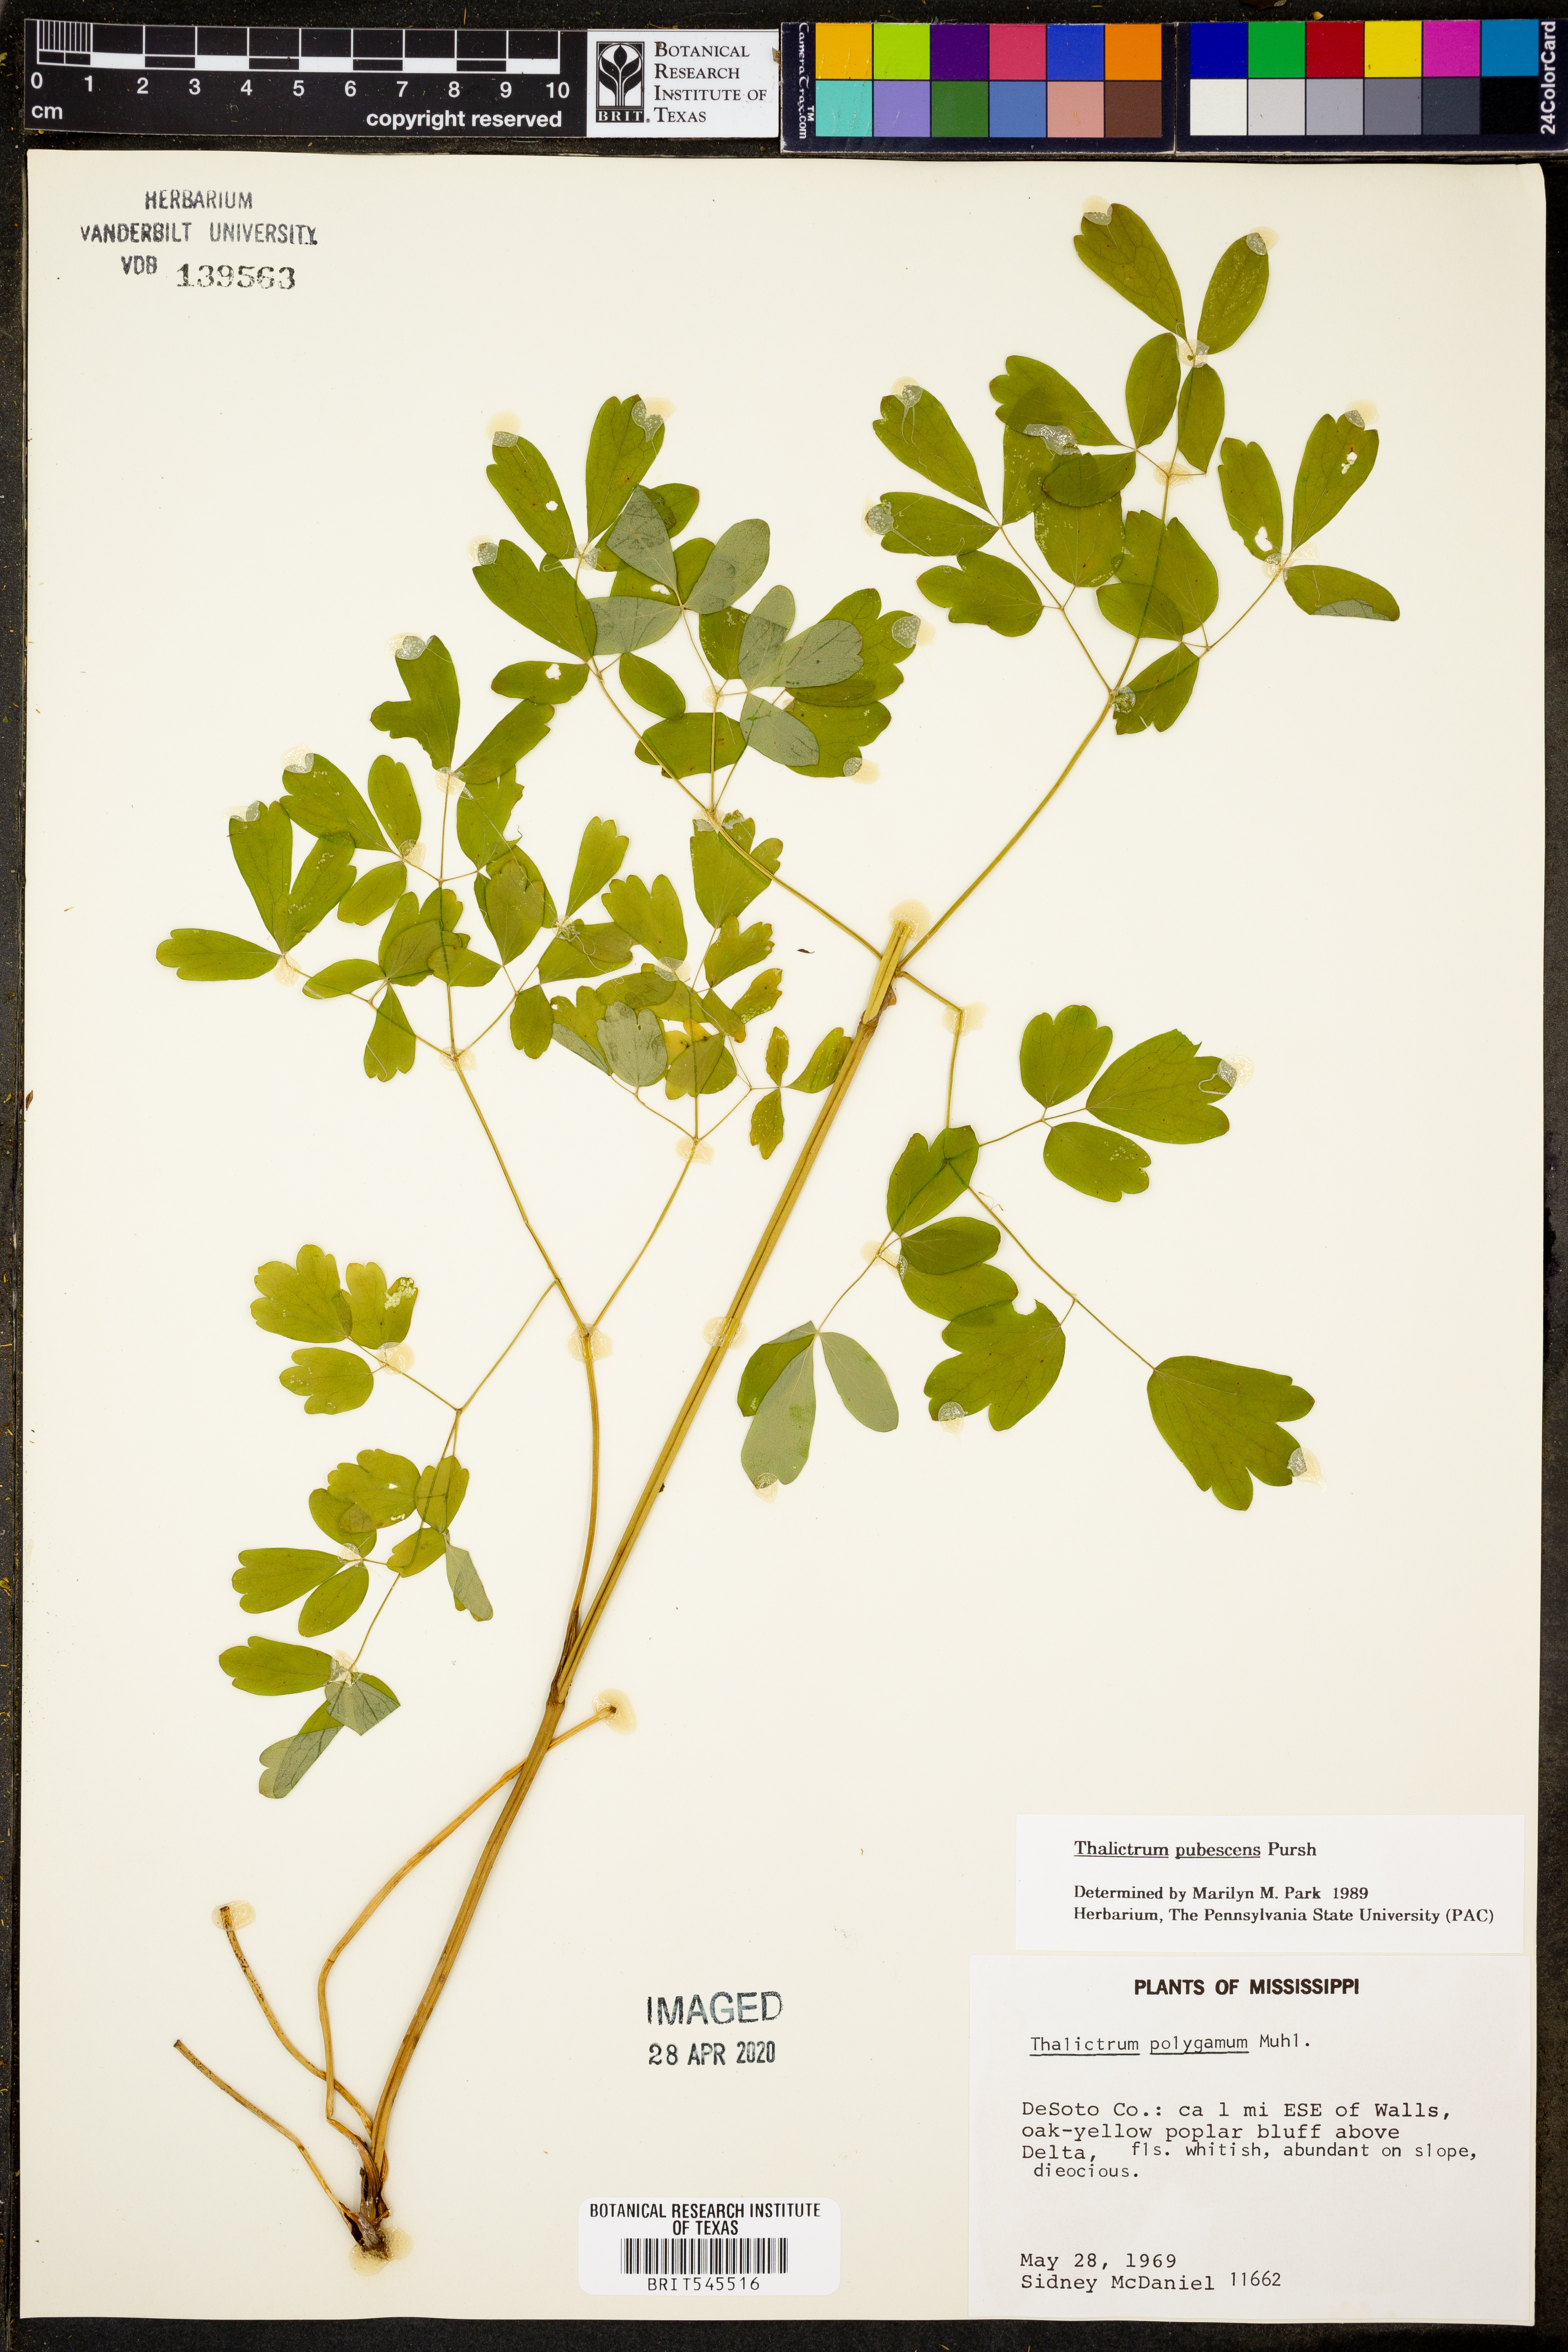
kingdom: Plantae
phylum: Tracheophyta
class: Magnoliopsida
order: Ranunculales
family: Ranunculaceae
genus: Thalictrum
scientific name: Thalictrum pubescens
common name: King-of-the-meadow
